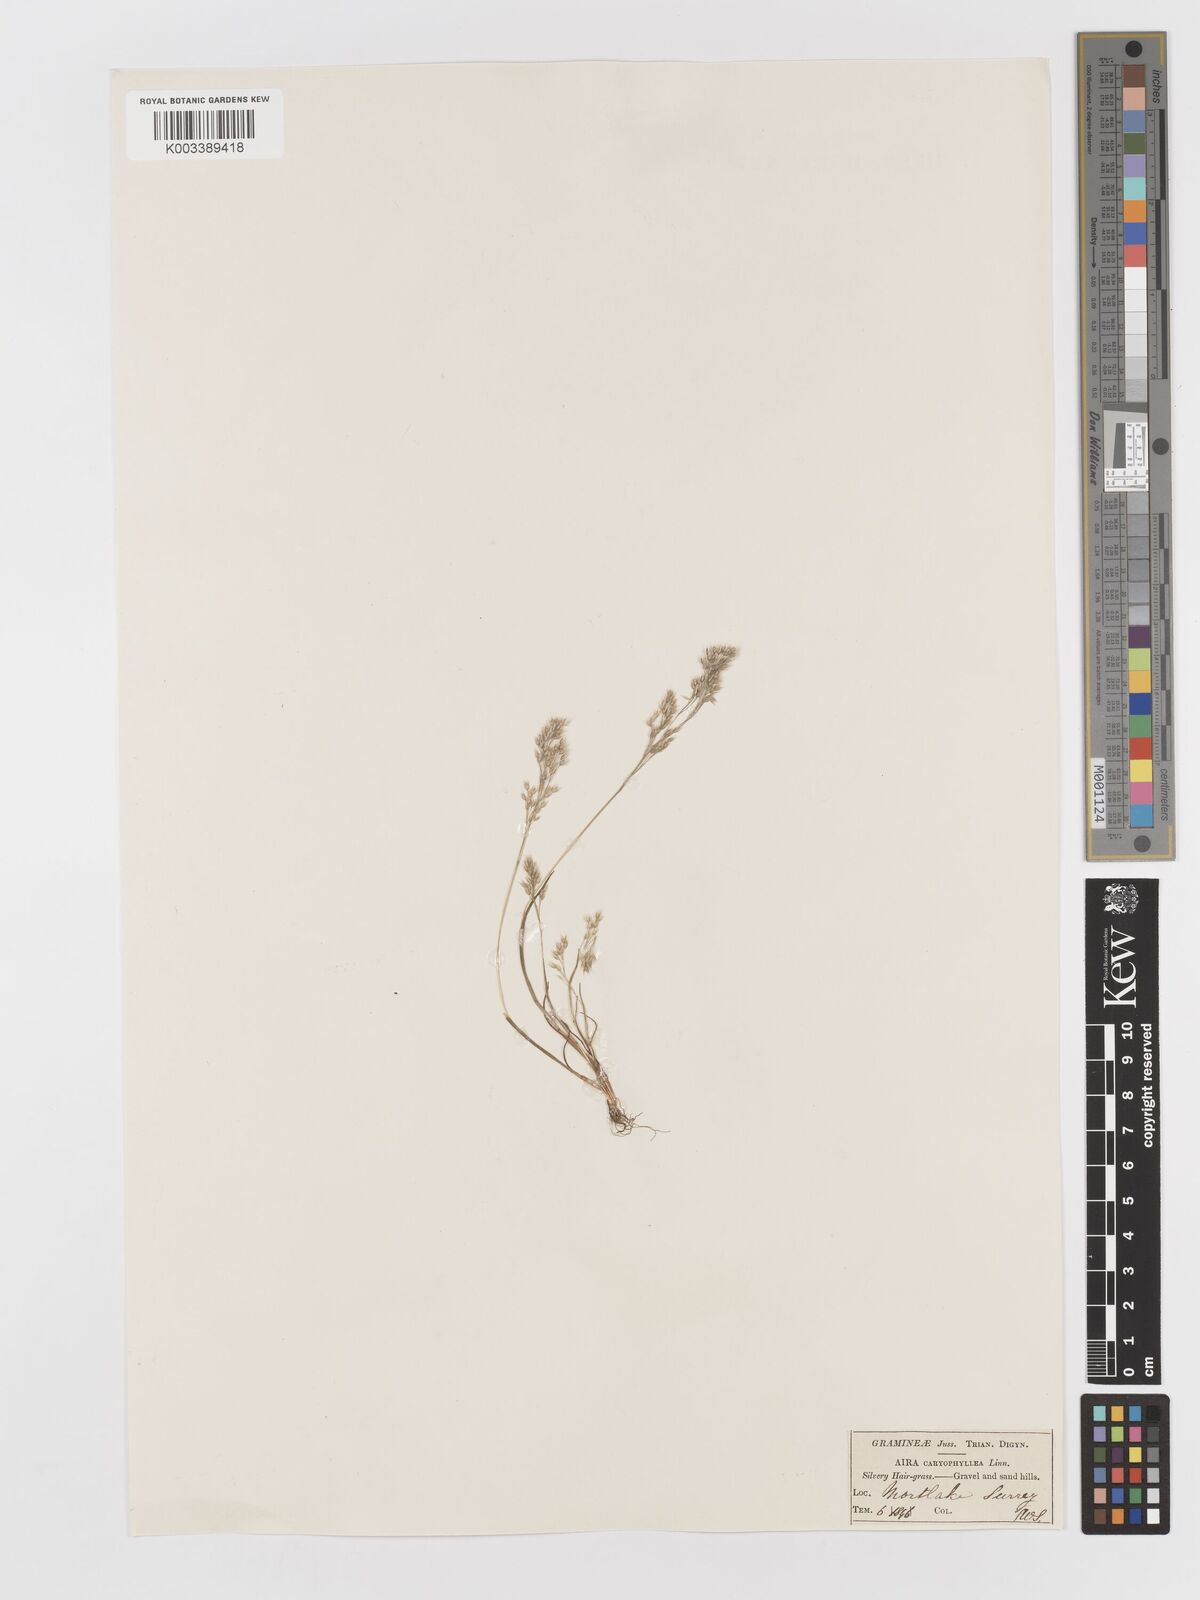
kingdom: Plantae
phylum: Tracheophyta
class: Liliopsida
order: Poales
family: Poaceae
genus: Aira
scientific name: Aira caryophyllea
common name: Silver hairgrass
